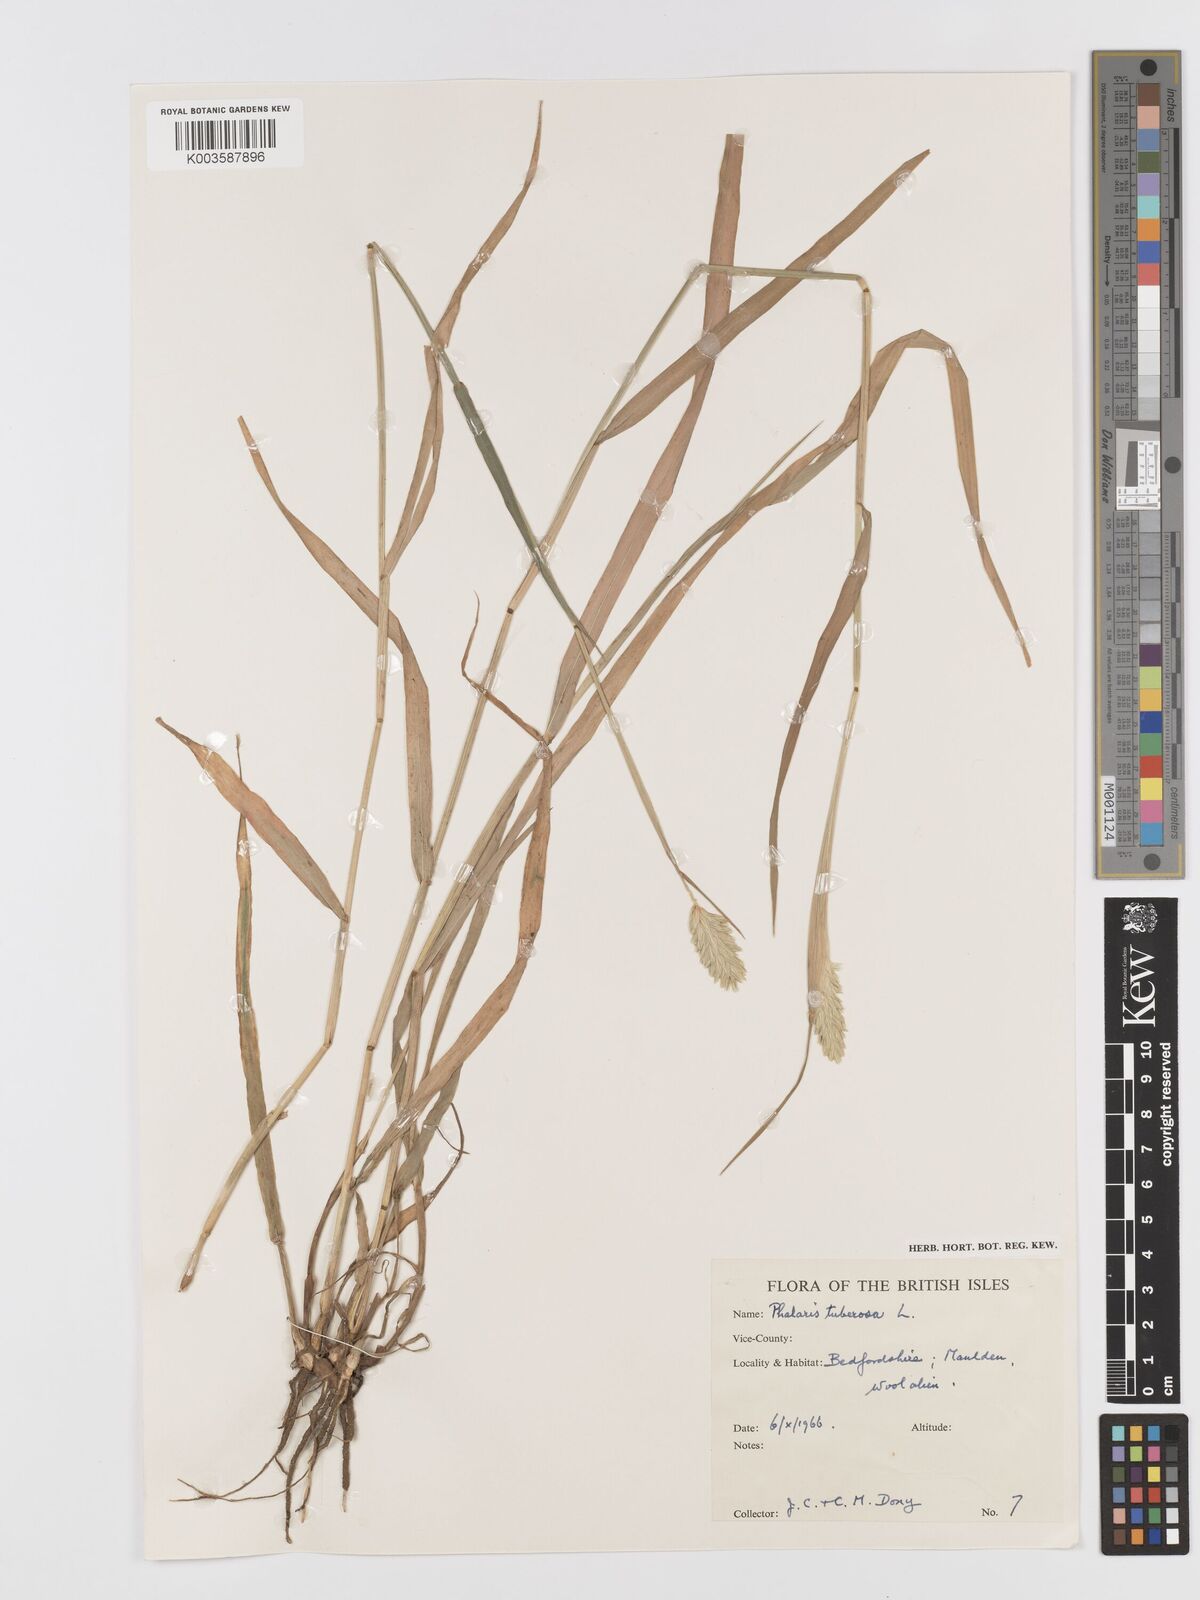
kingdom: Plantae
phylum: Tracheophyta
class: Liliopsida
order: Poales
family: Poaceae
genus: Phalaris
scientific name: Phalaris
